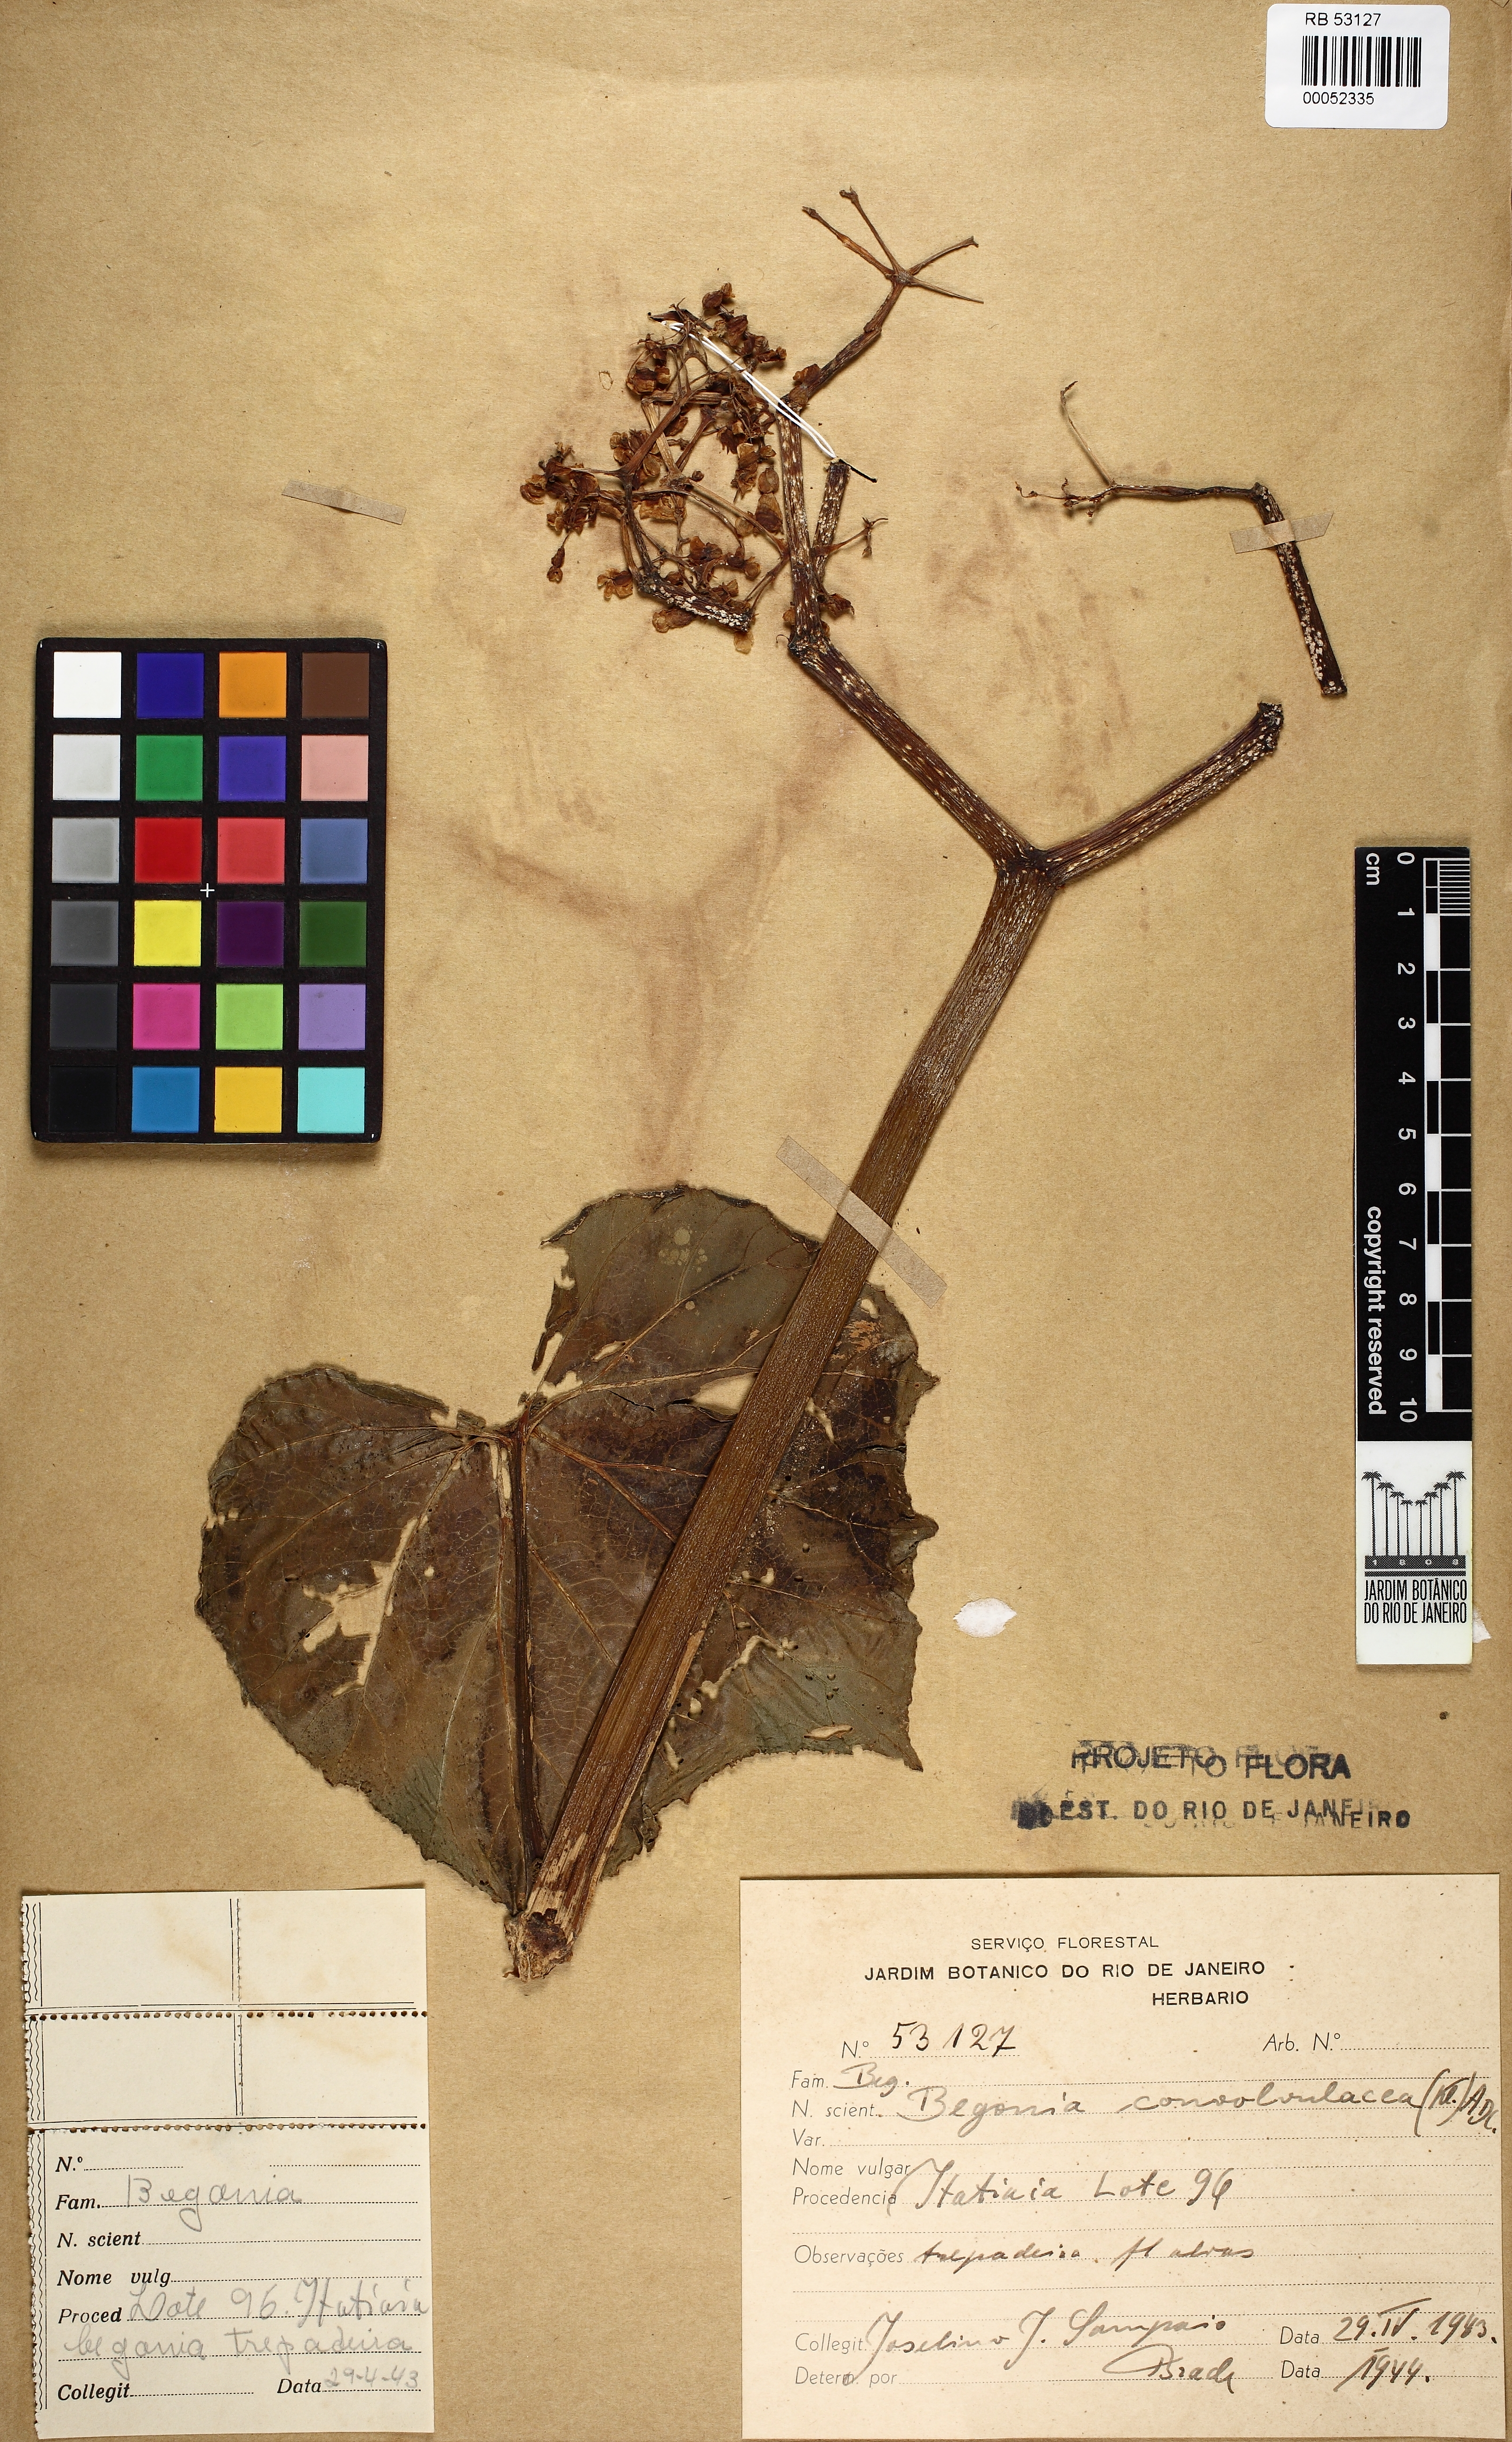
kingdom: Plantae
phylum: Tracheophyta
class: Magnoliopsida
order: Cucurbitales
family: Begoniaceae
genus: Begonia
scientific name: Begonia convolvulacea
